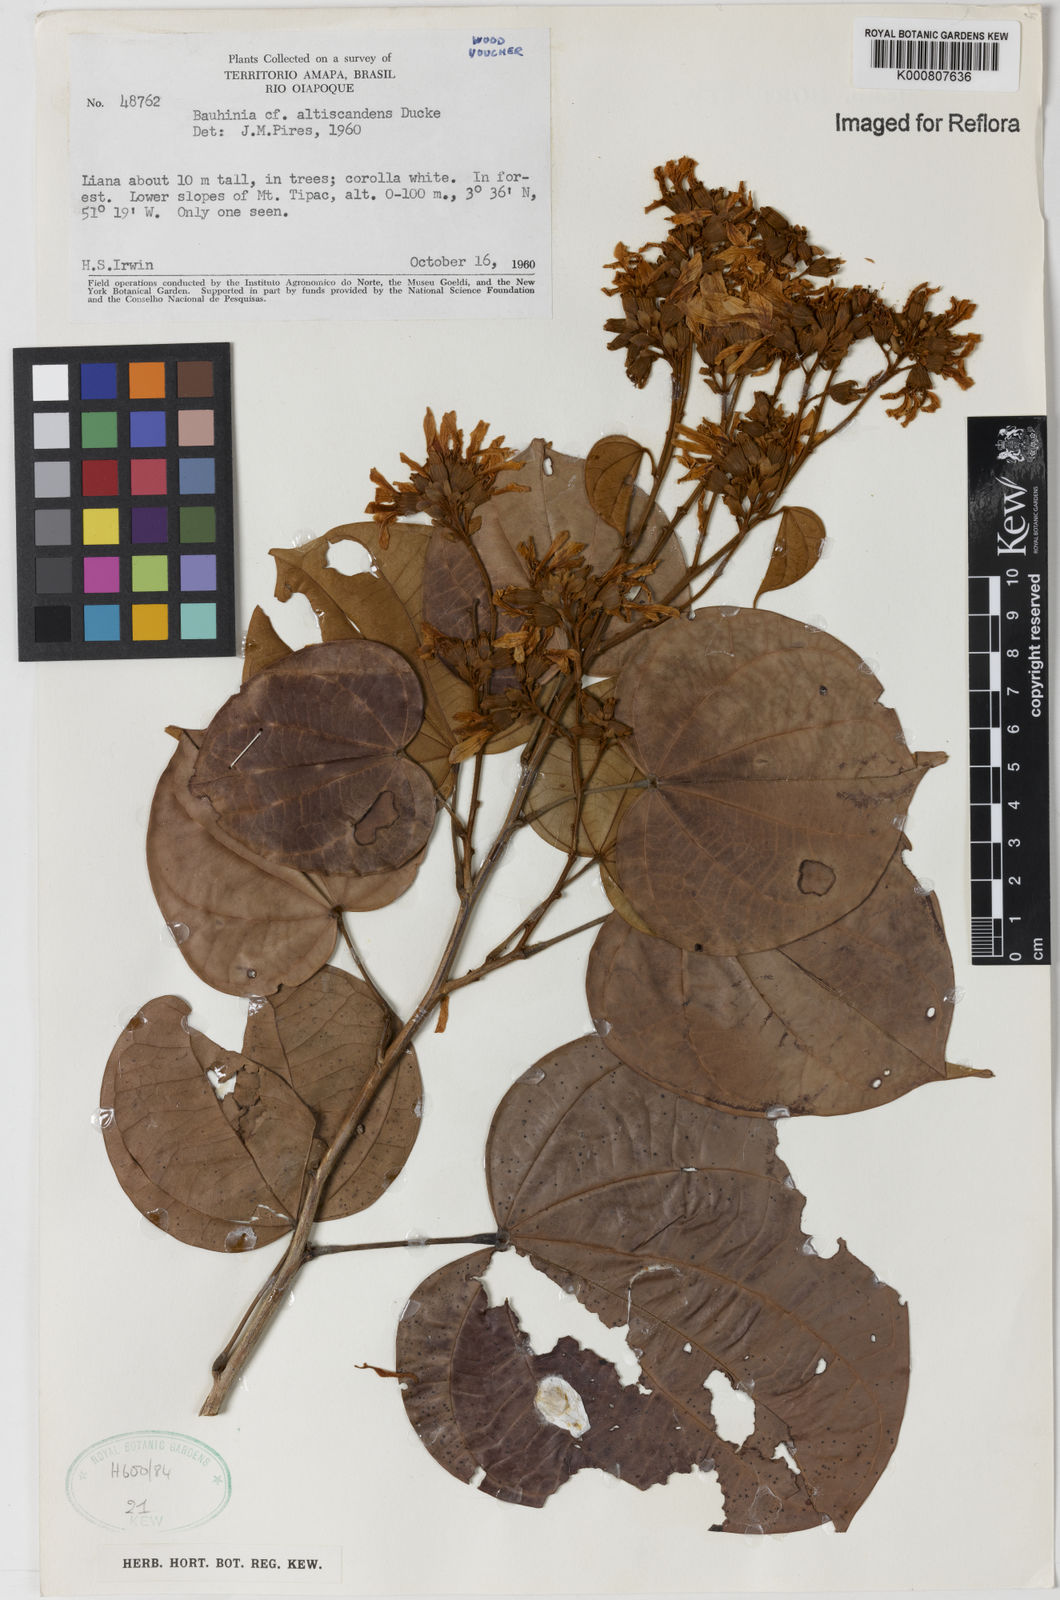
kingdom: Plantae
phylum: Tracheophyta
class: Magnoliopsida
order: Fabales
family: Fabaceae
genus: Schnella
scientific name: Schnella altiscandens
